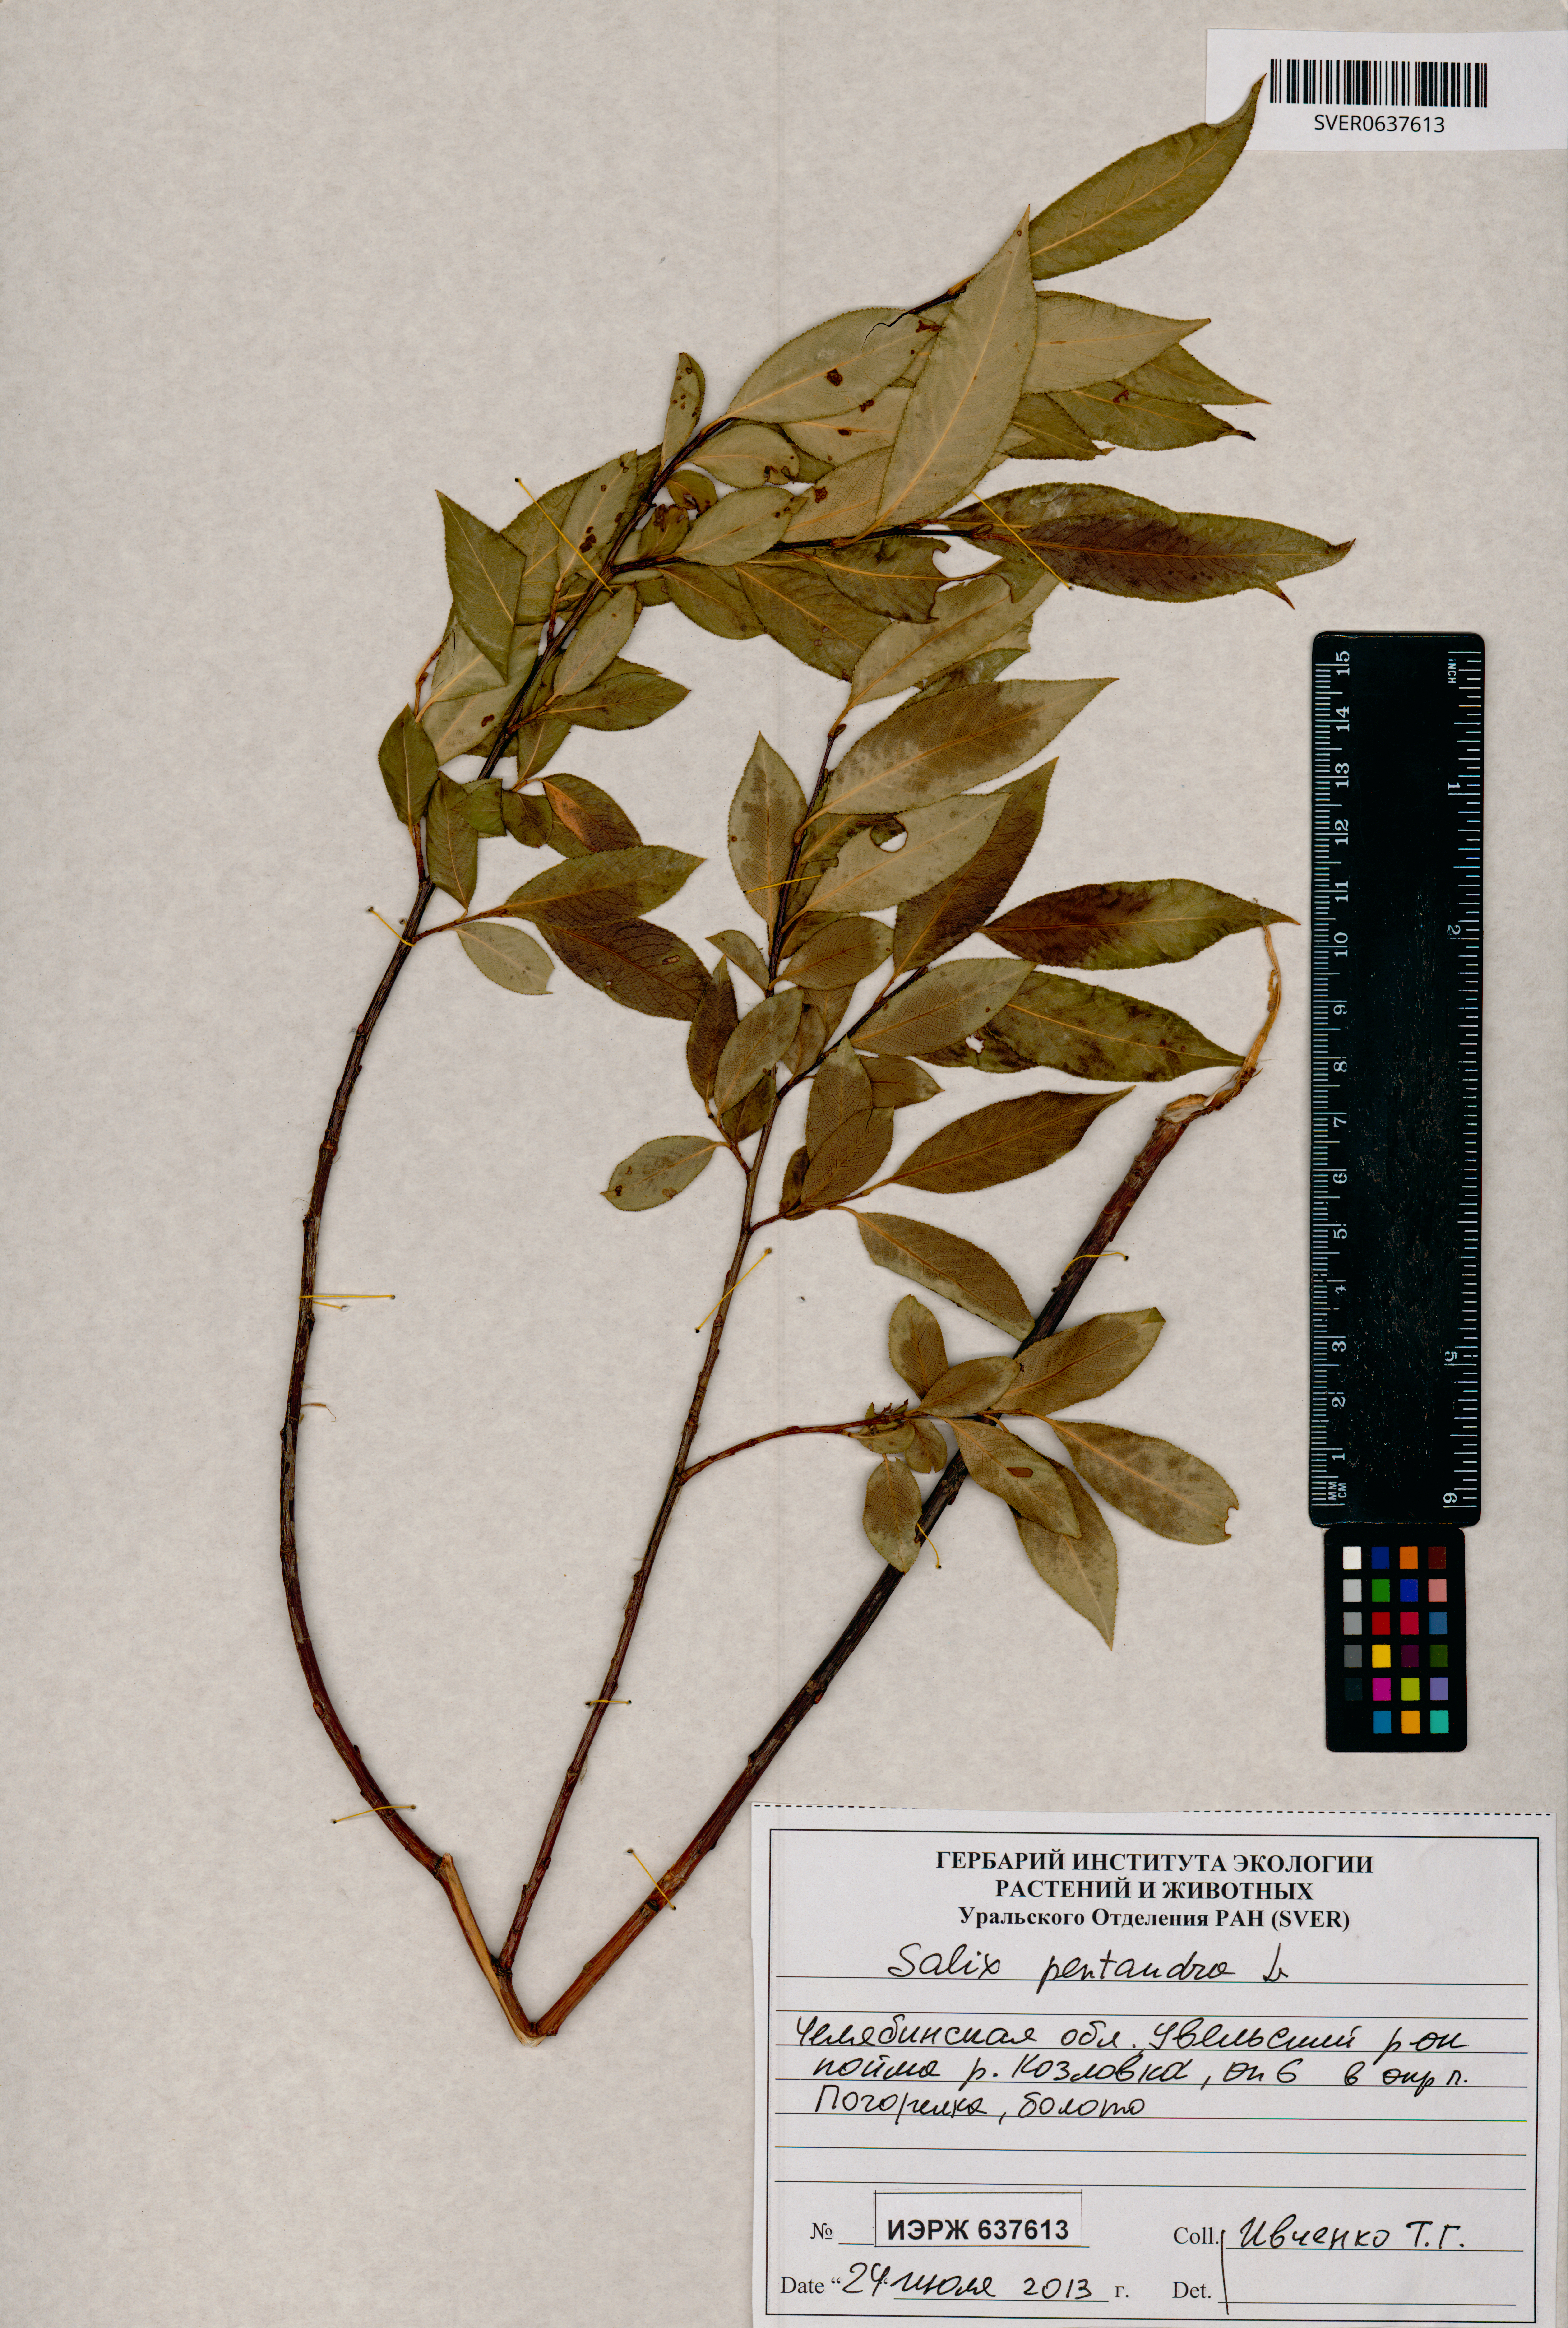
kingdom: Plantae
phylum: Tracheophyta
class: Magnoliopsida
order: Malpighiales
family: Salicaceae
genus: Salix
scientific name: Salix pentandra
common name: Bay willow
